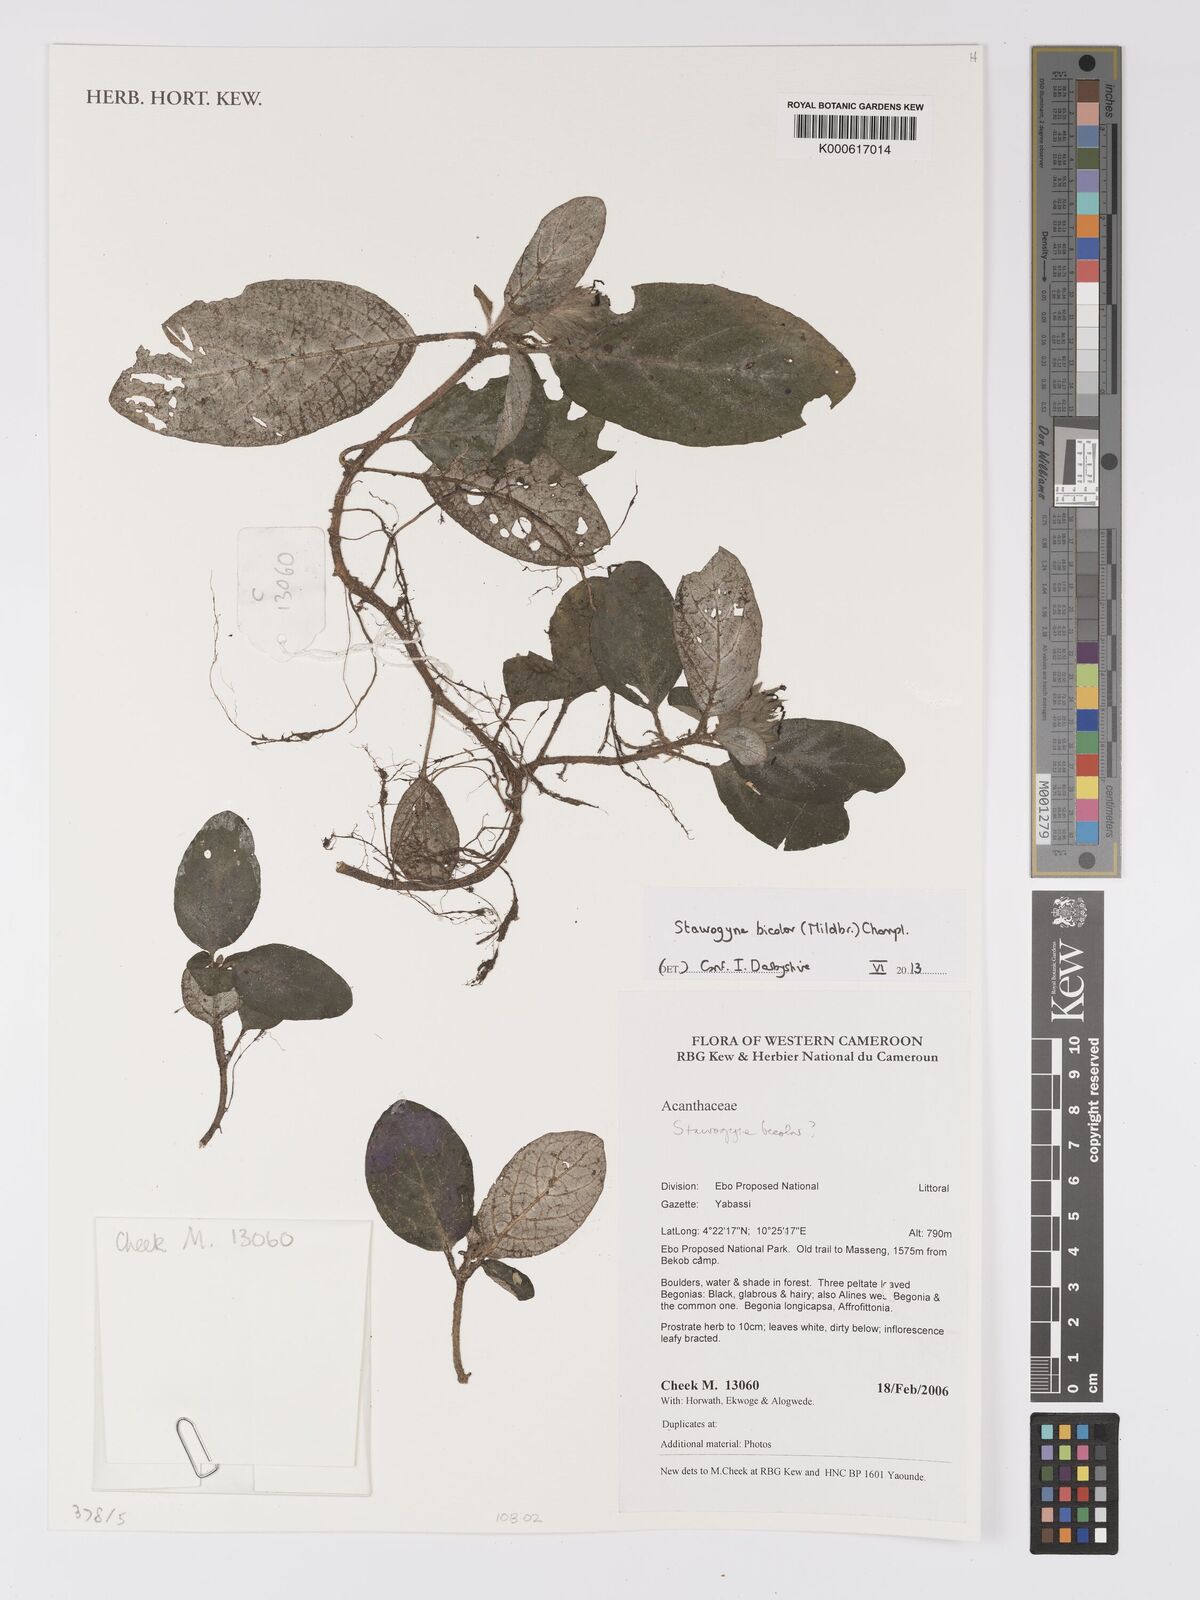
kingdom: Plantae
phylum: Tracheophyta
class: Magnoliopsida
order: Lamiales
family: Acanthaceae
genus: Staurogyne
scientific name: Staurogyne bicolor
